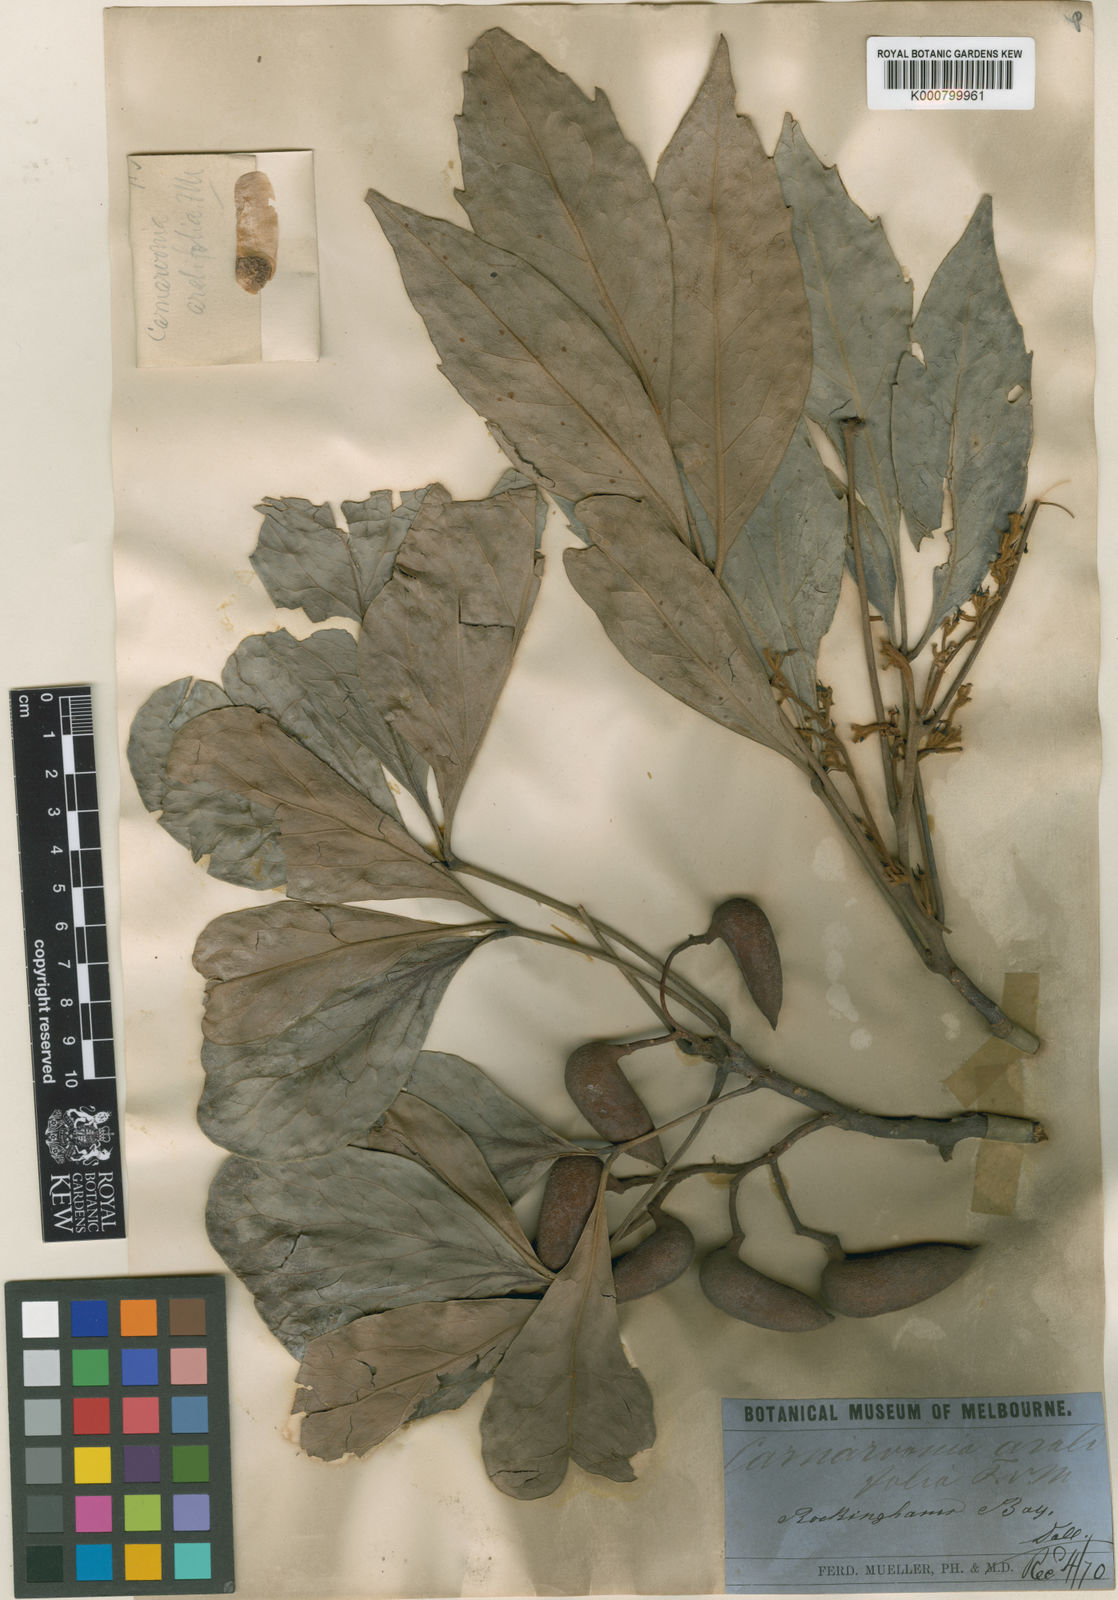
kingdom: Plantae
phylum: Tracheophyta
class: Magnoliopsida
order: Proteales
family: Proteaceae
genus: Carnarvonia
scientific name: Carnarvonia araliifolia
